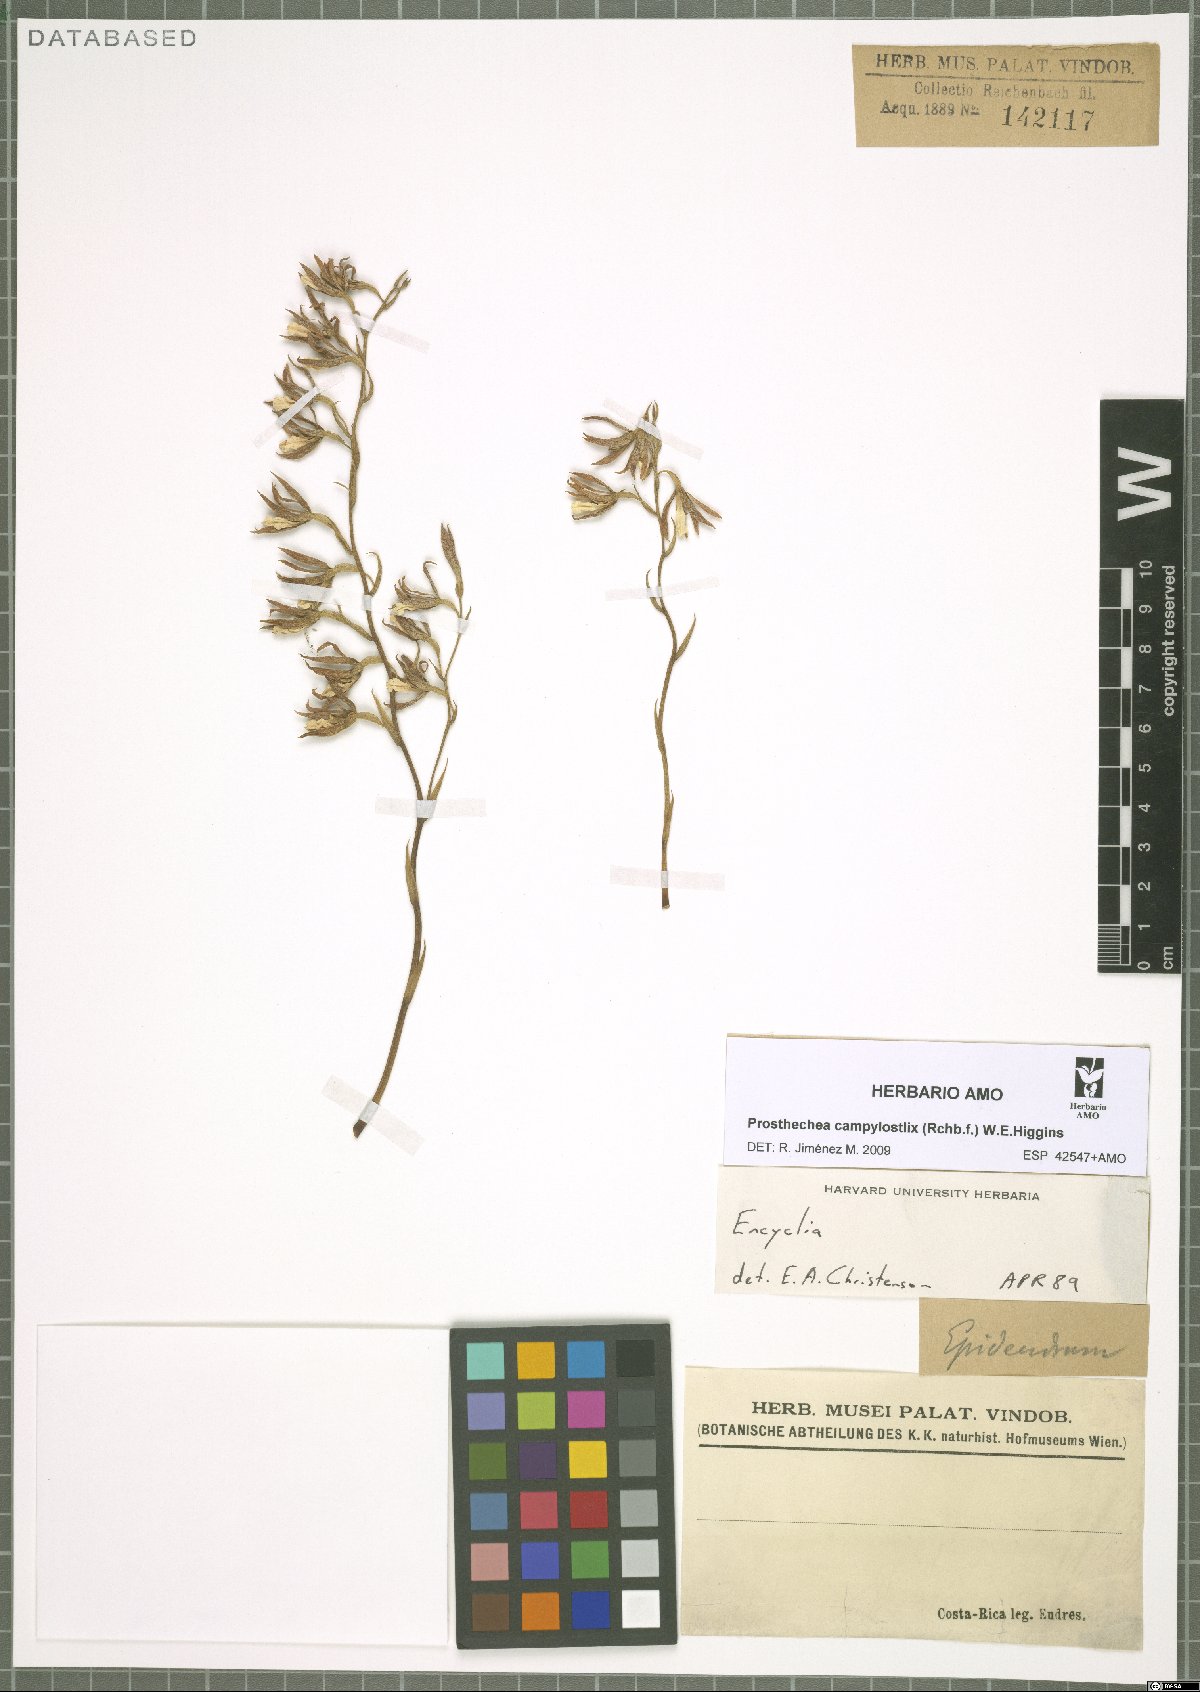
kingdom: Plantae
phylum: Tracheophyta
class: Liliopsida
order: Asparagales
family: Orchidaceae
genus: Prosthechea
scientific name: Prosthechea campylostalix
